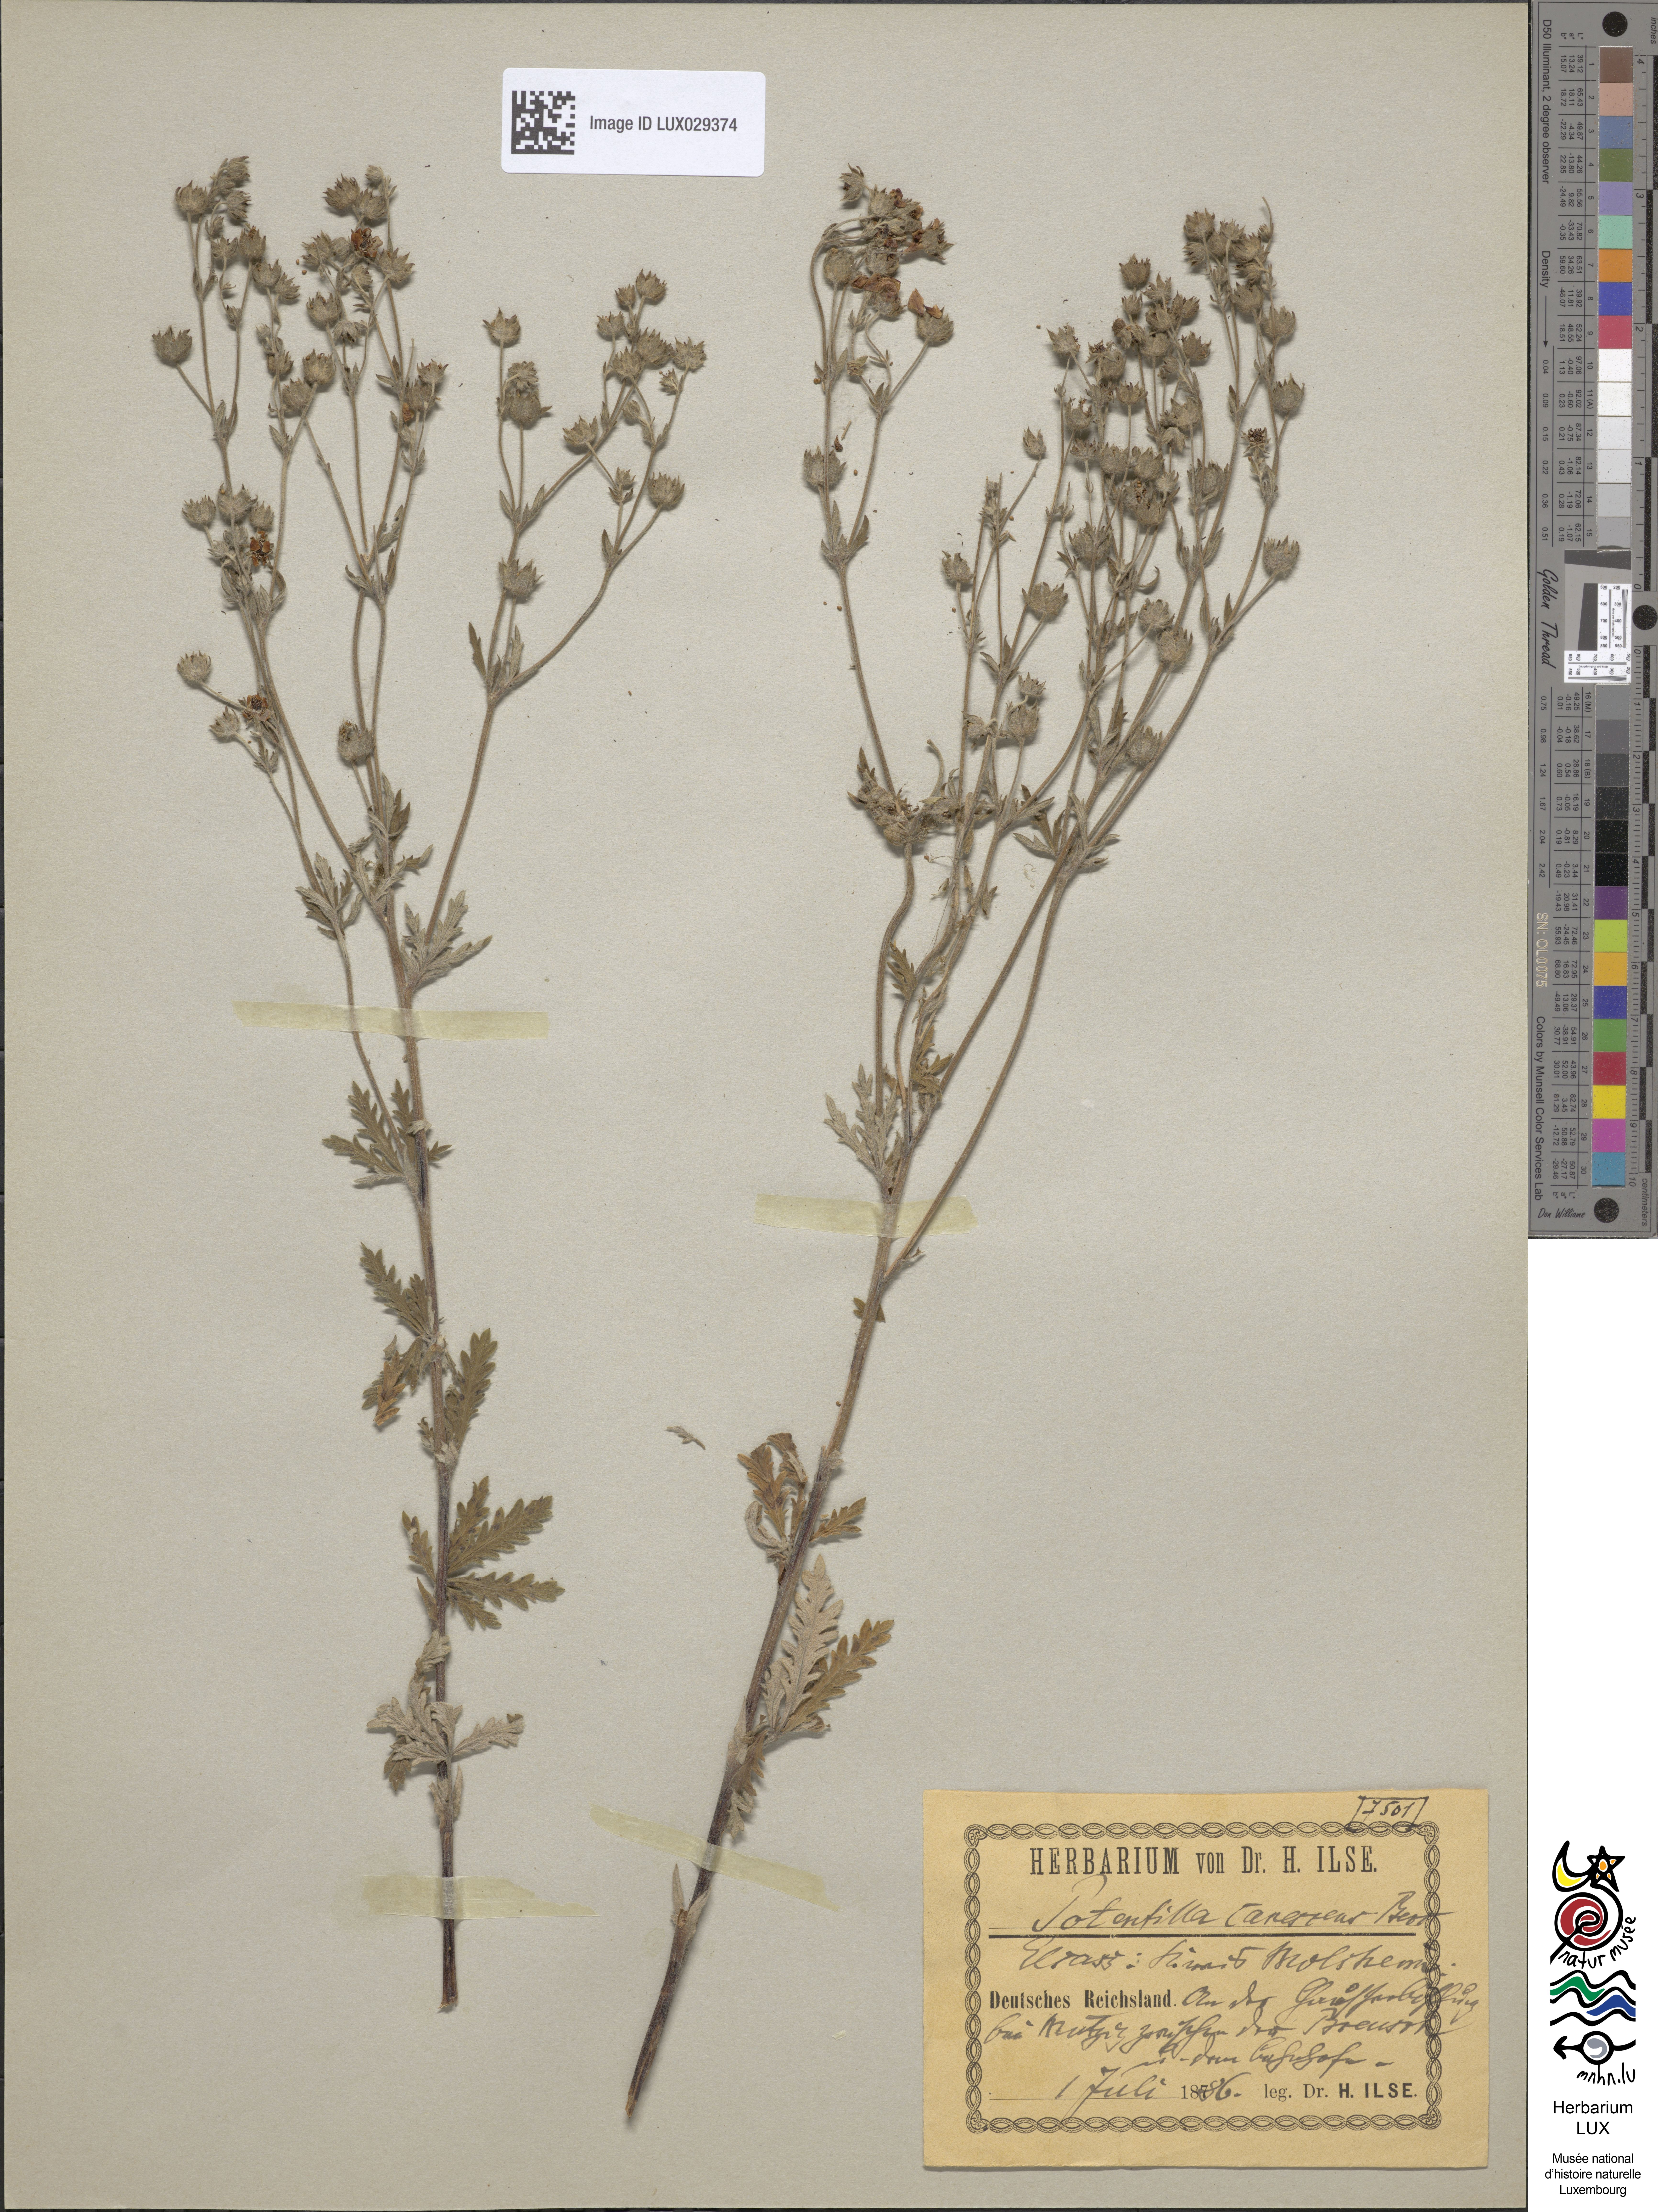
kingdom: Plantae
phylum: Tracheophyta
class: Magnoliopsida
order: Rosales
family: Rosaceae
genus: Potentilla
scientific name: Potentilla inclinata
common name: Grey cinquefoil
